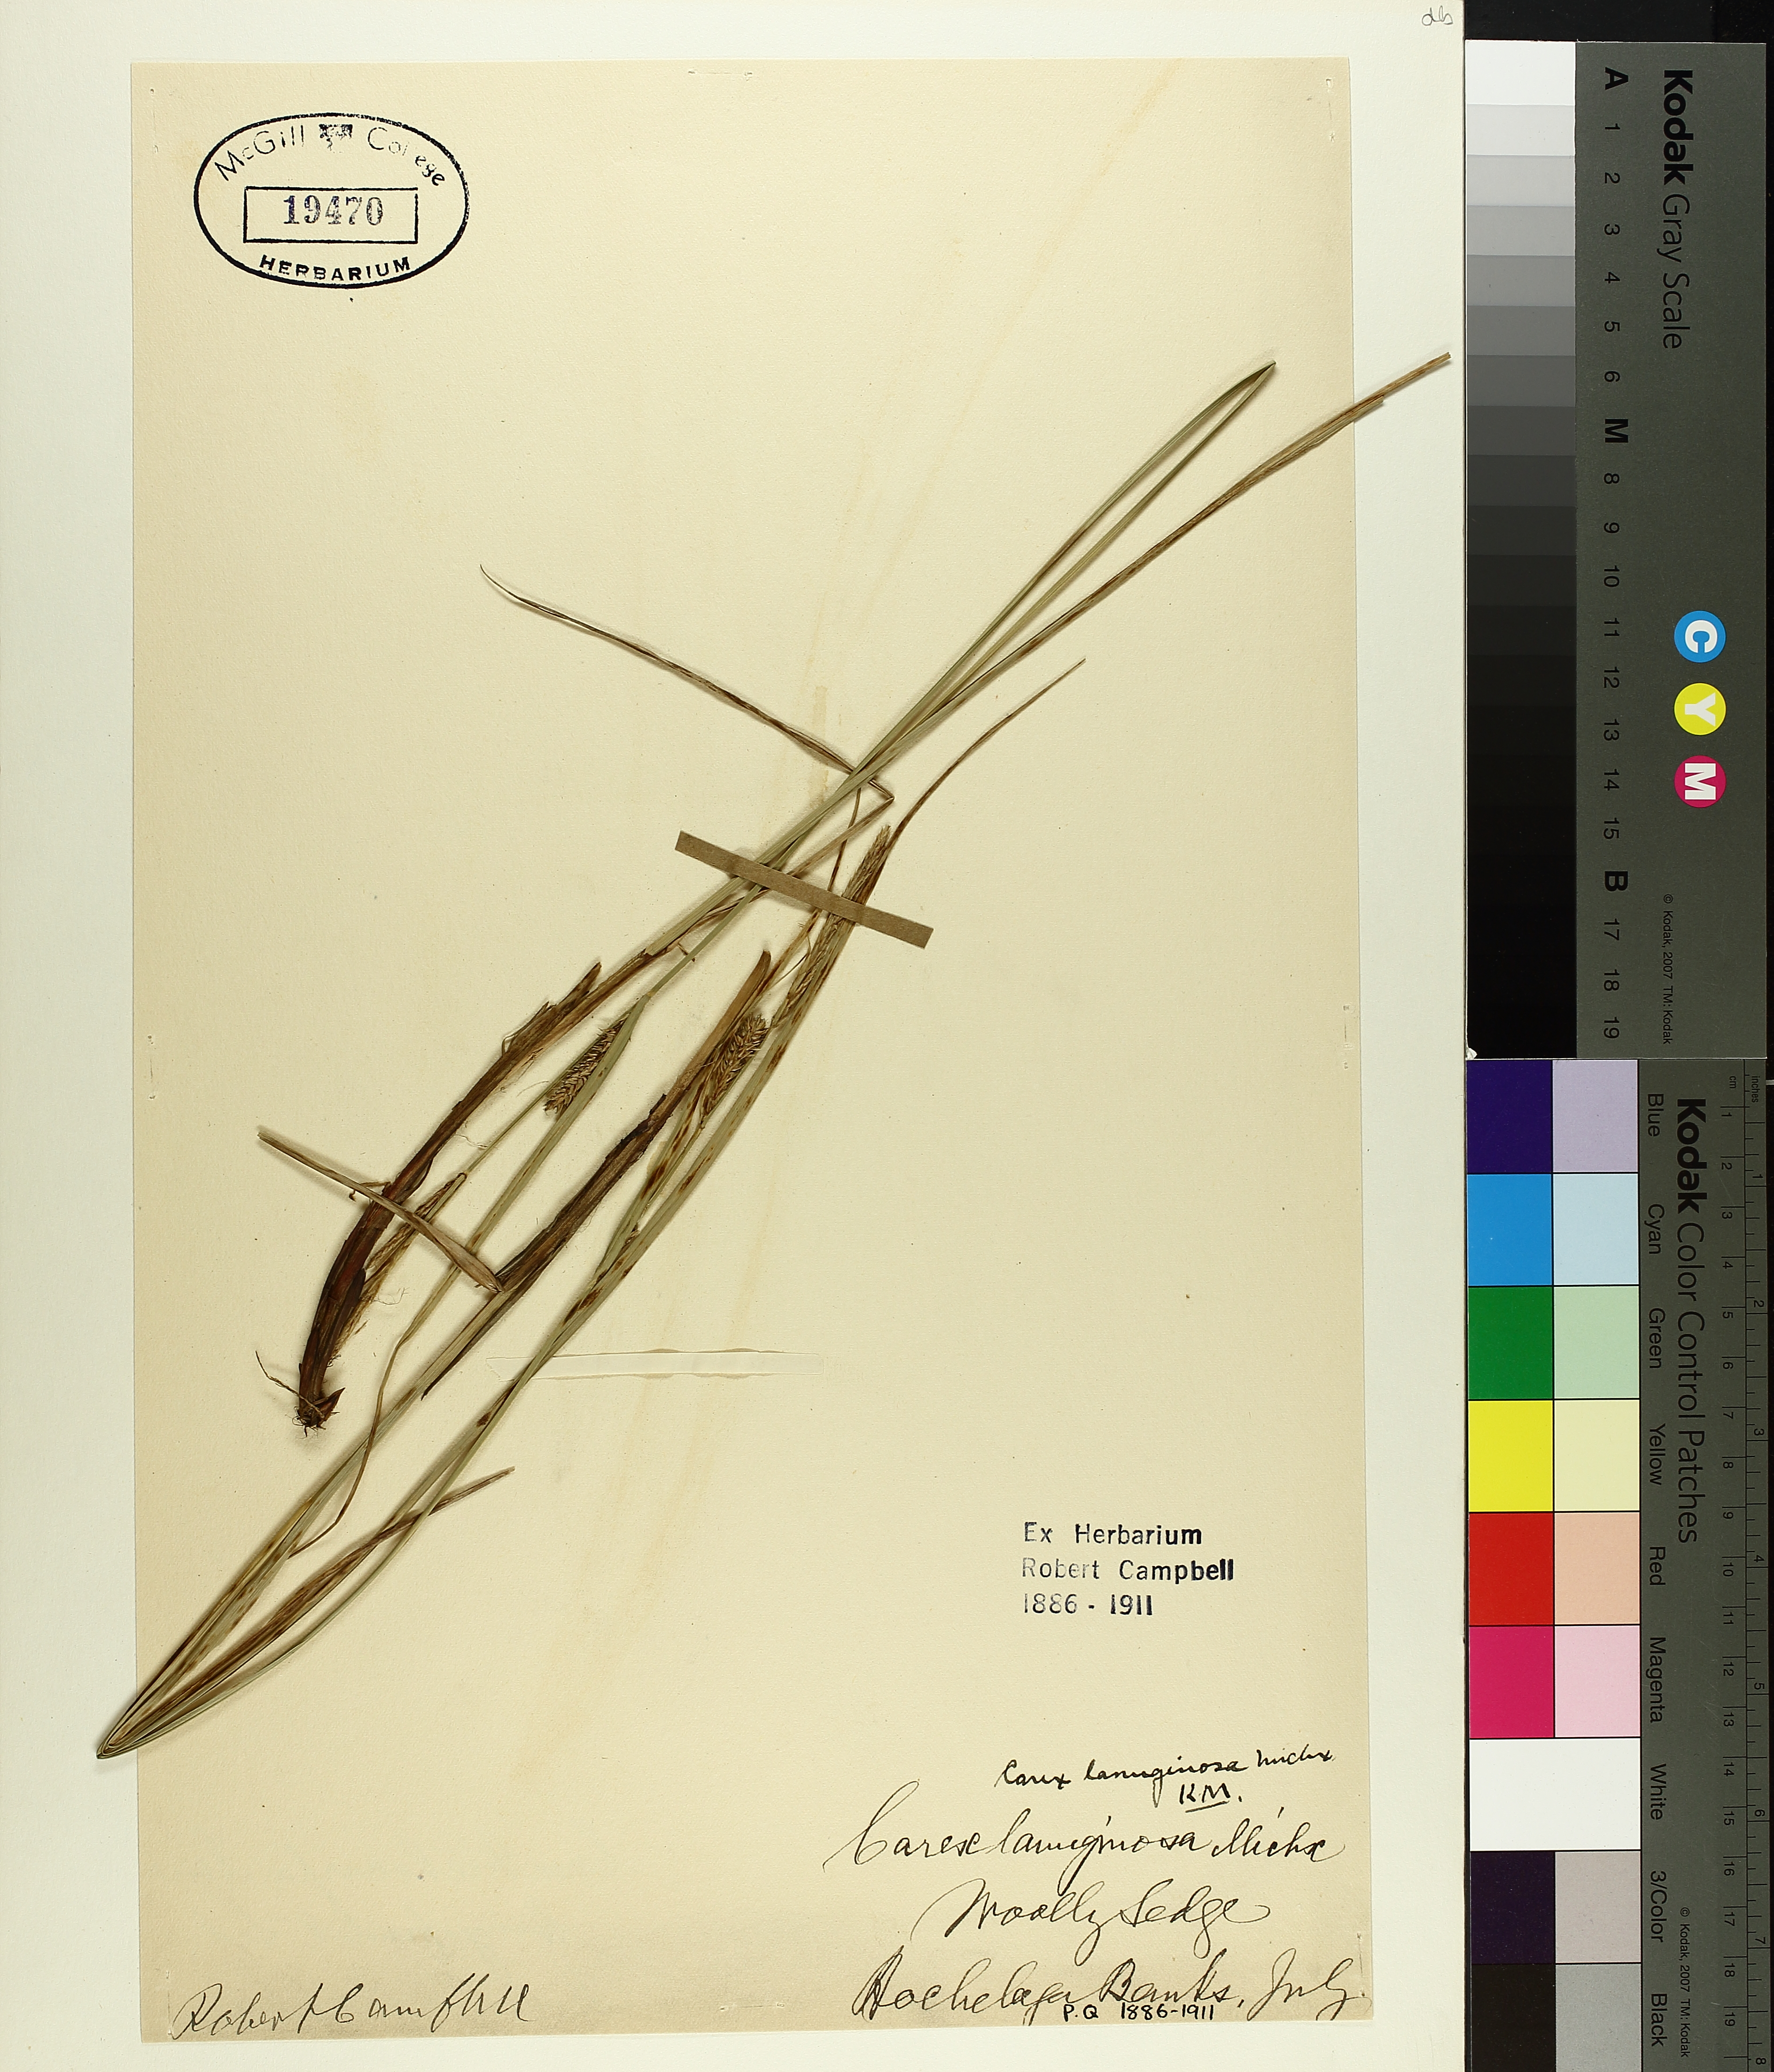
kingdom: Plantae
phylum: Tracheophyta
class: Liliopsida
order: Poales
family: Cyperaceae
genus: Carex
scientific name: Carex pellita
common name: Woolly sedge
